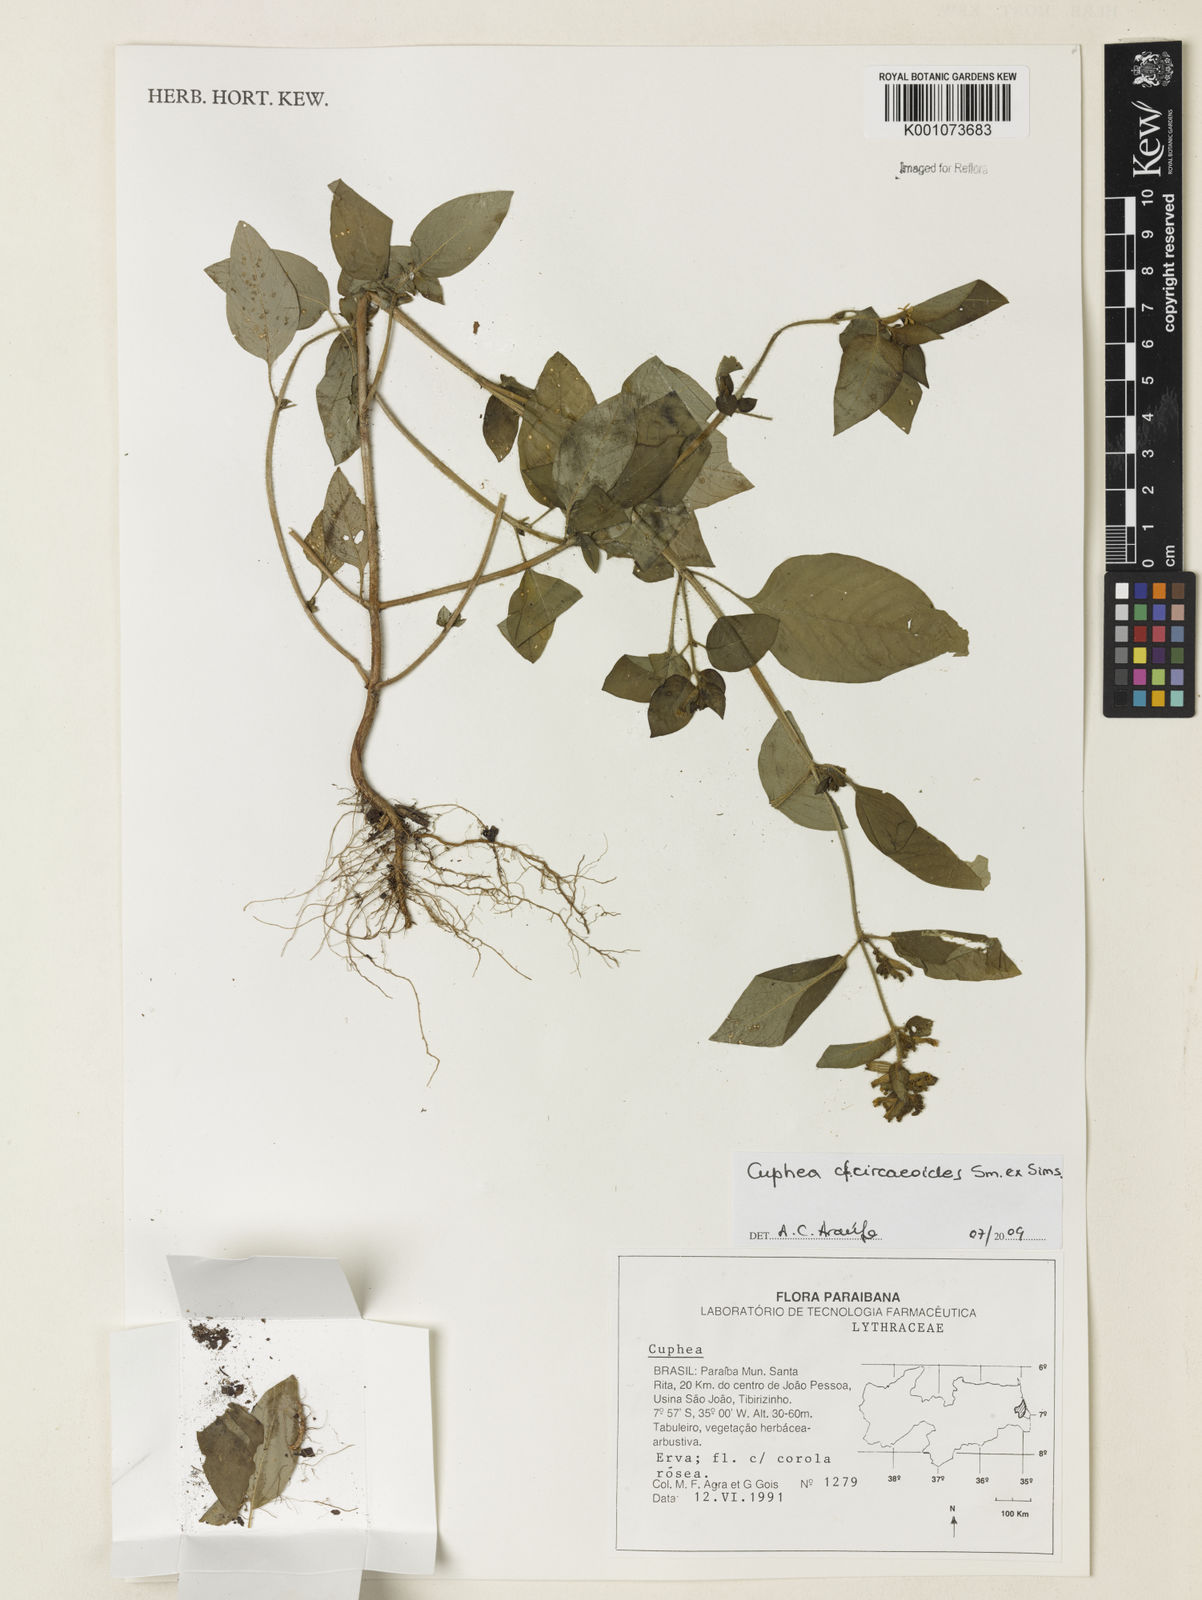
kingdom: Plantae
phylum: Tracheophyta
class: Magnoliopsida
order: Myrtales
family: Lythraceae
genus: Cuphea
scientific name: Cuphea circaeoides
